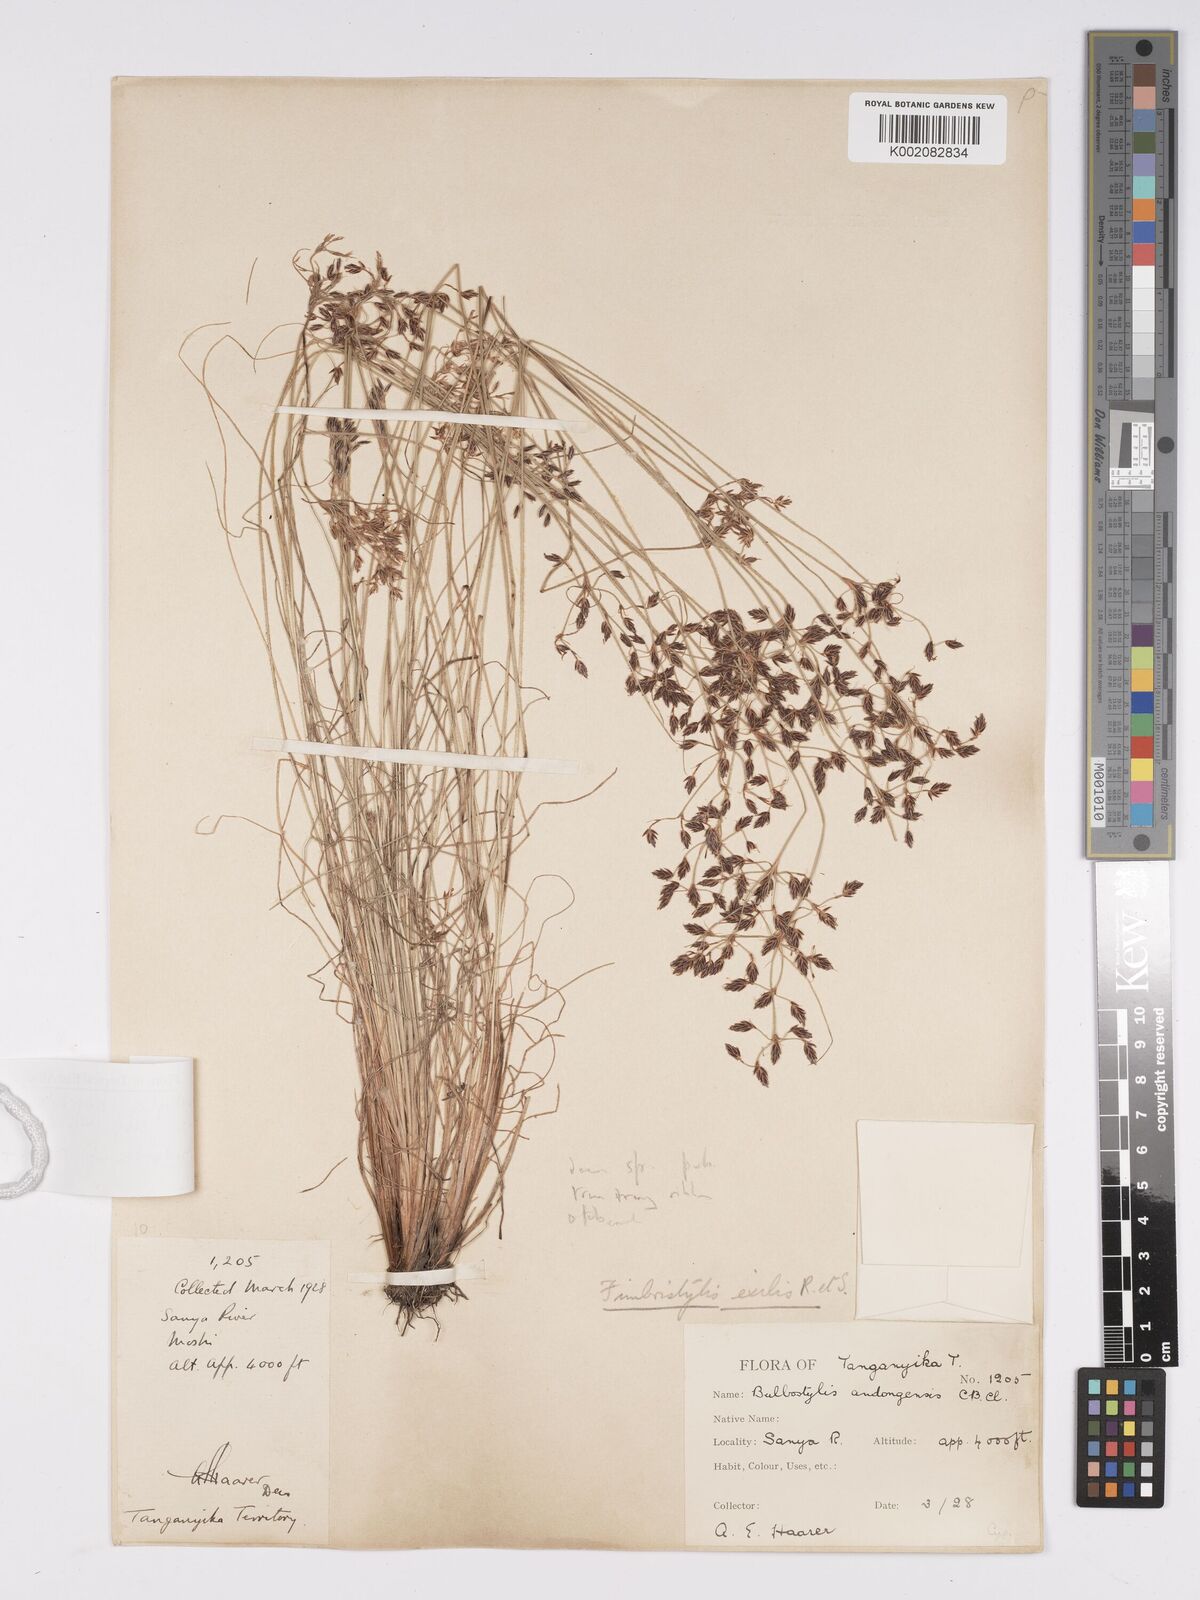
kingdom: Plantae
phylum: Tracheophyta
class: Liliopsida
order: Poales
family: Cyperaceae
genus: Bulbostylis
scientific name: Bulbostylis hispidula
